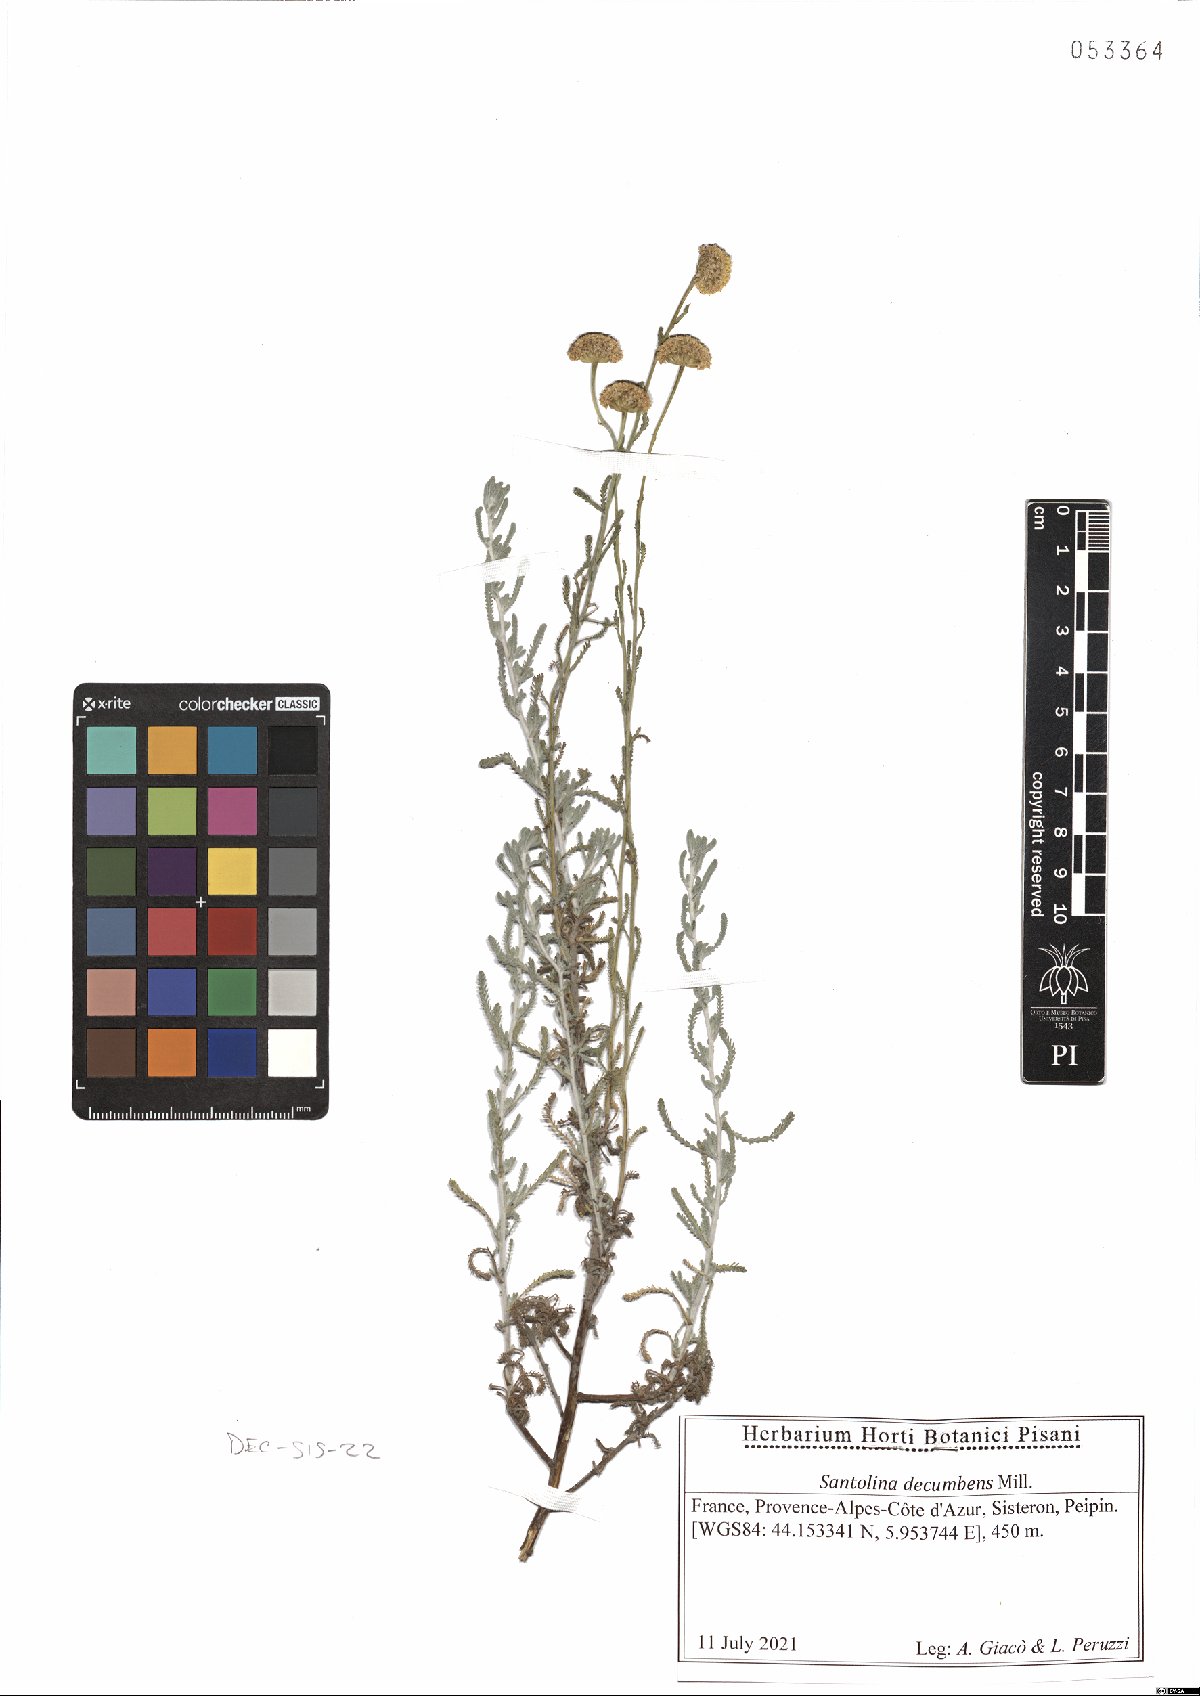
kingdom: Plantae
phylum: Tracheophyta
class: Magnoliopsida
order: Asterales
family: Asteraceae
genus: Santolina
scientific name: Santolina decumbens
